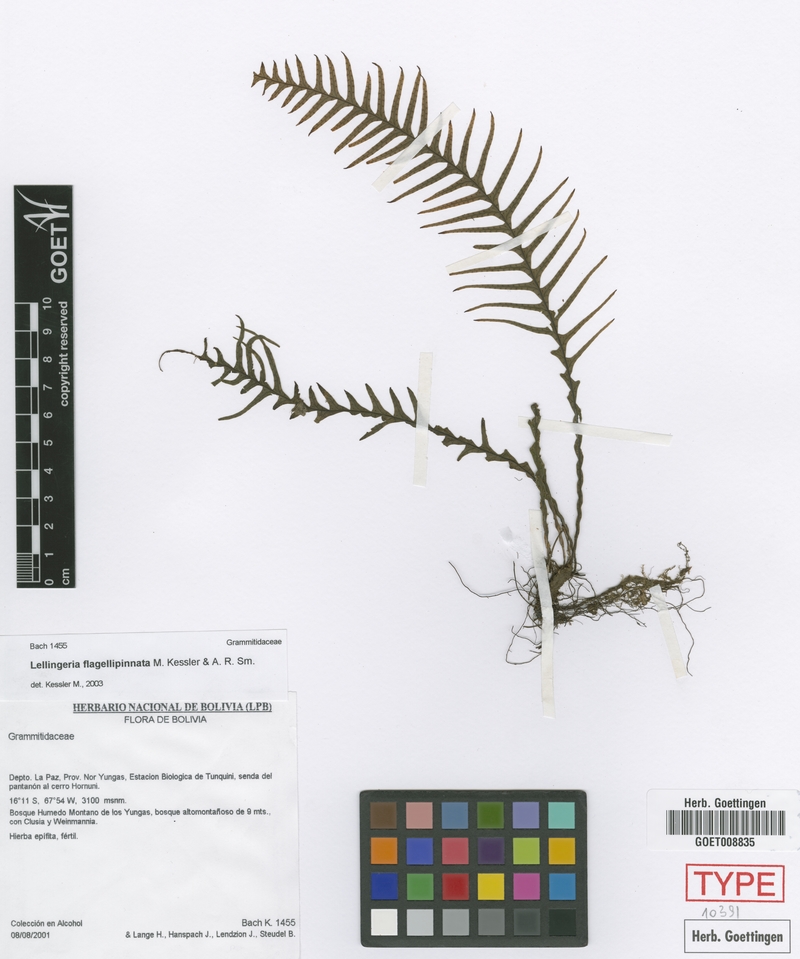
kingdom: Plantae
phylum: Tracheophyta
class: Polypodiopsida
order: Polypodiales
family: Polypodiaceae
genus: Lellingeria
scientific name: Lellingeria flagellipinnata
